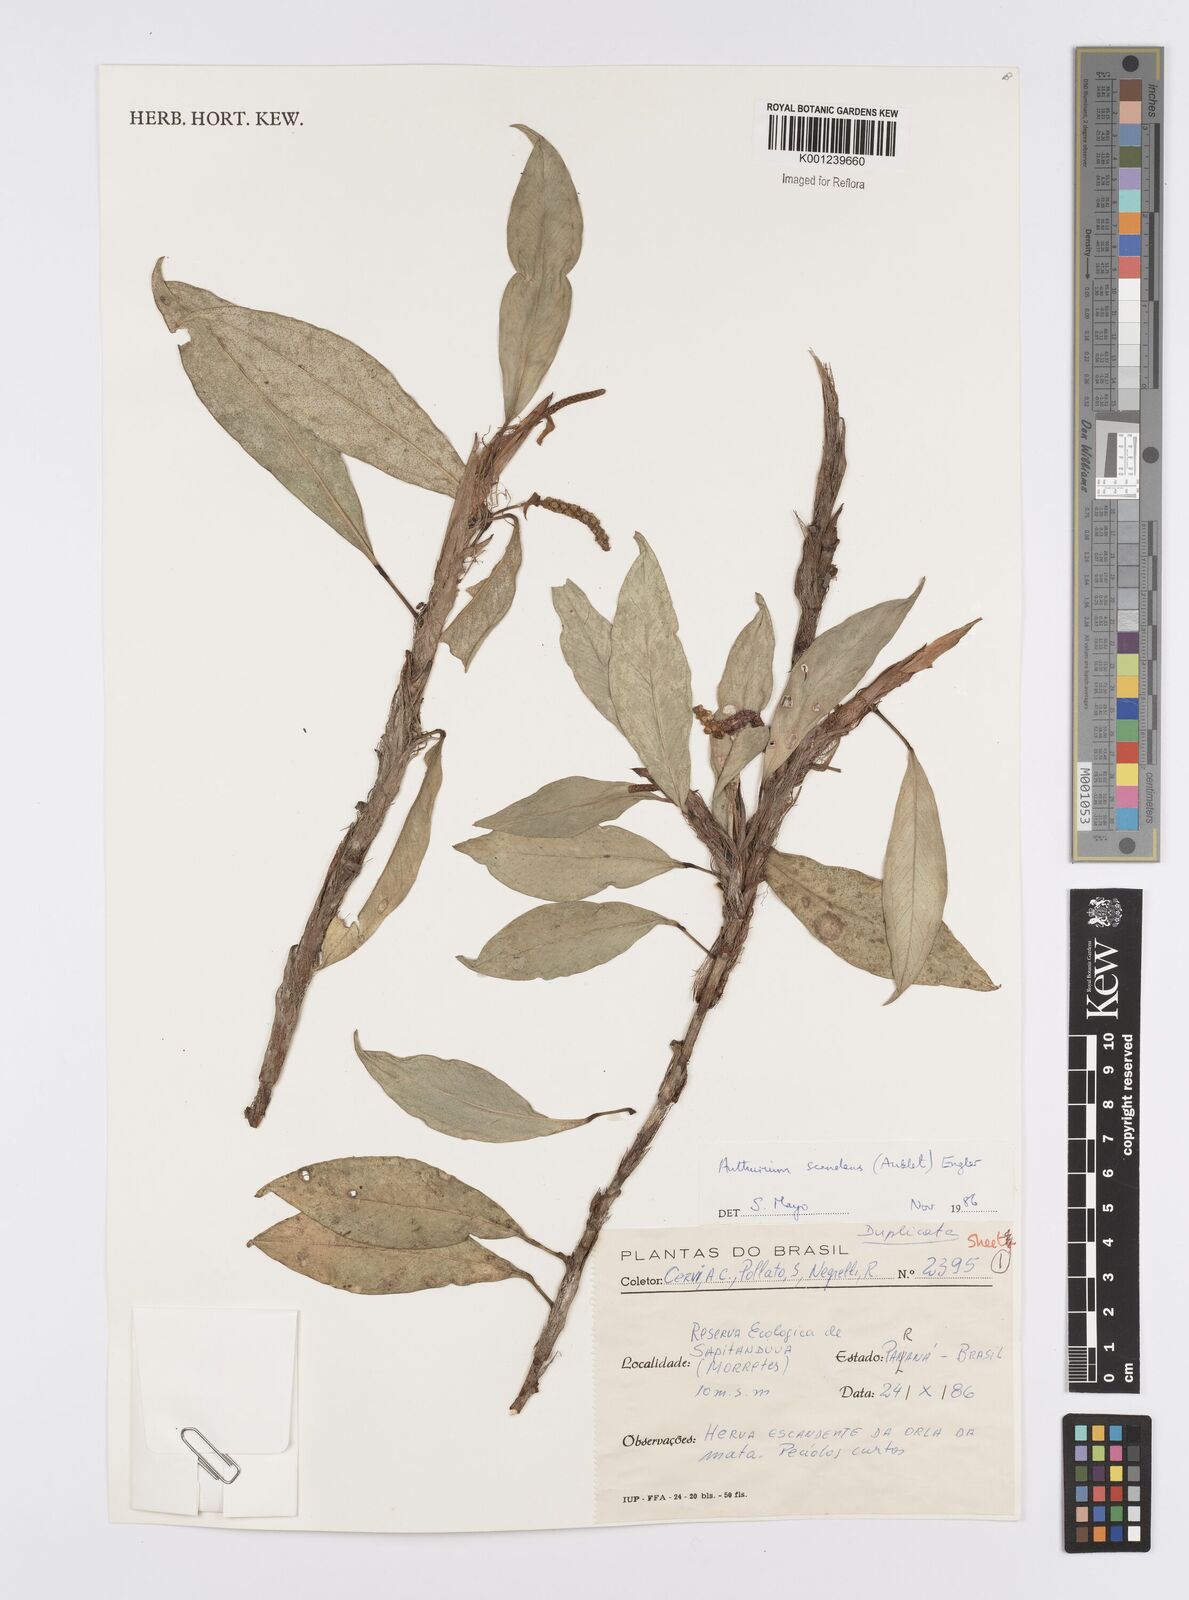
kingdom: Plantae
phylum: Tracheophyta
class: Liliopsida
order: Alismatales
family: Araceae
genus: Anthurium
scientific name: Anthurium scandens
